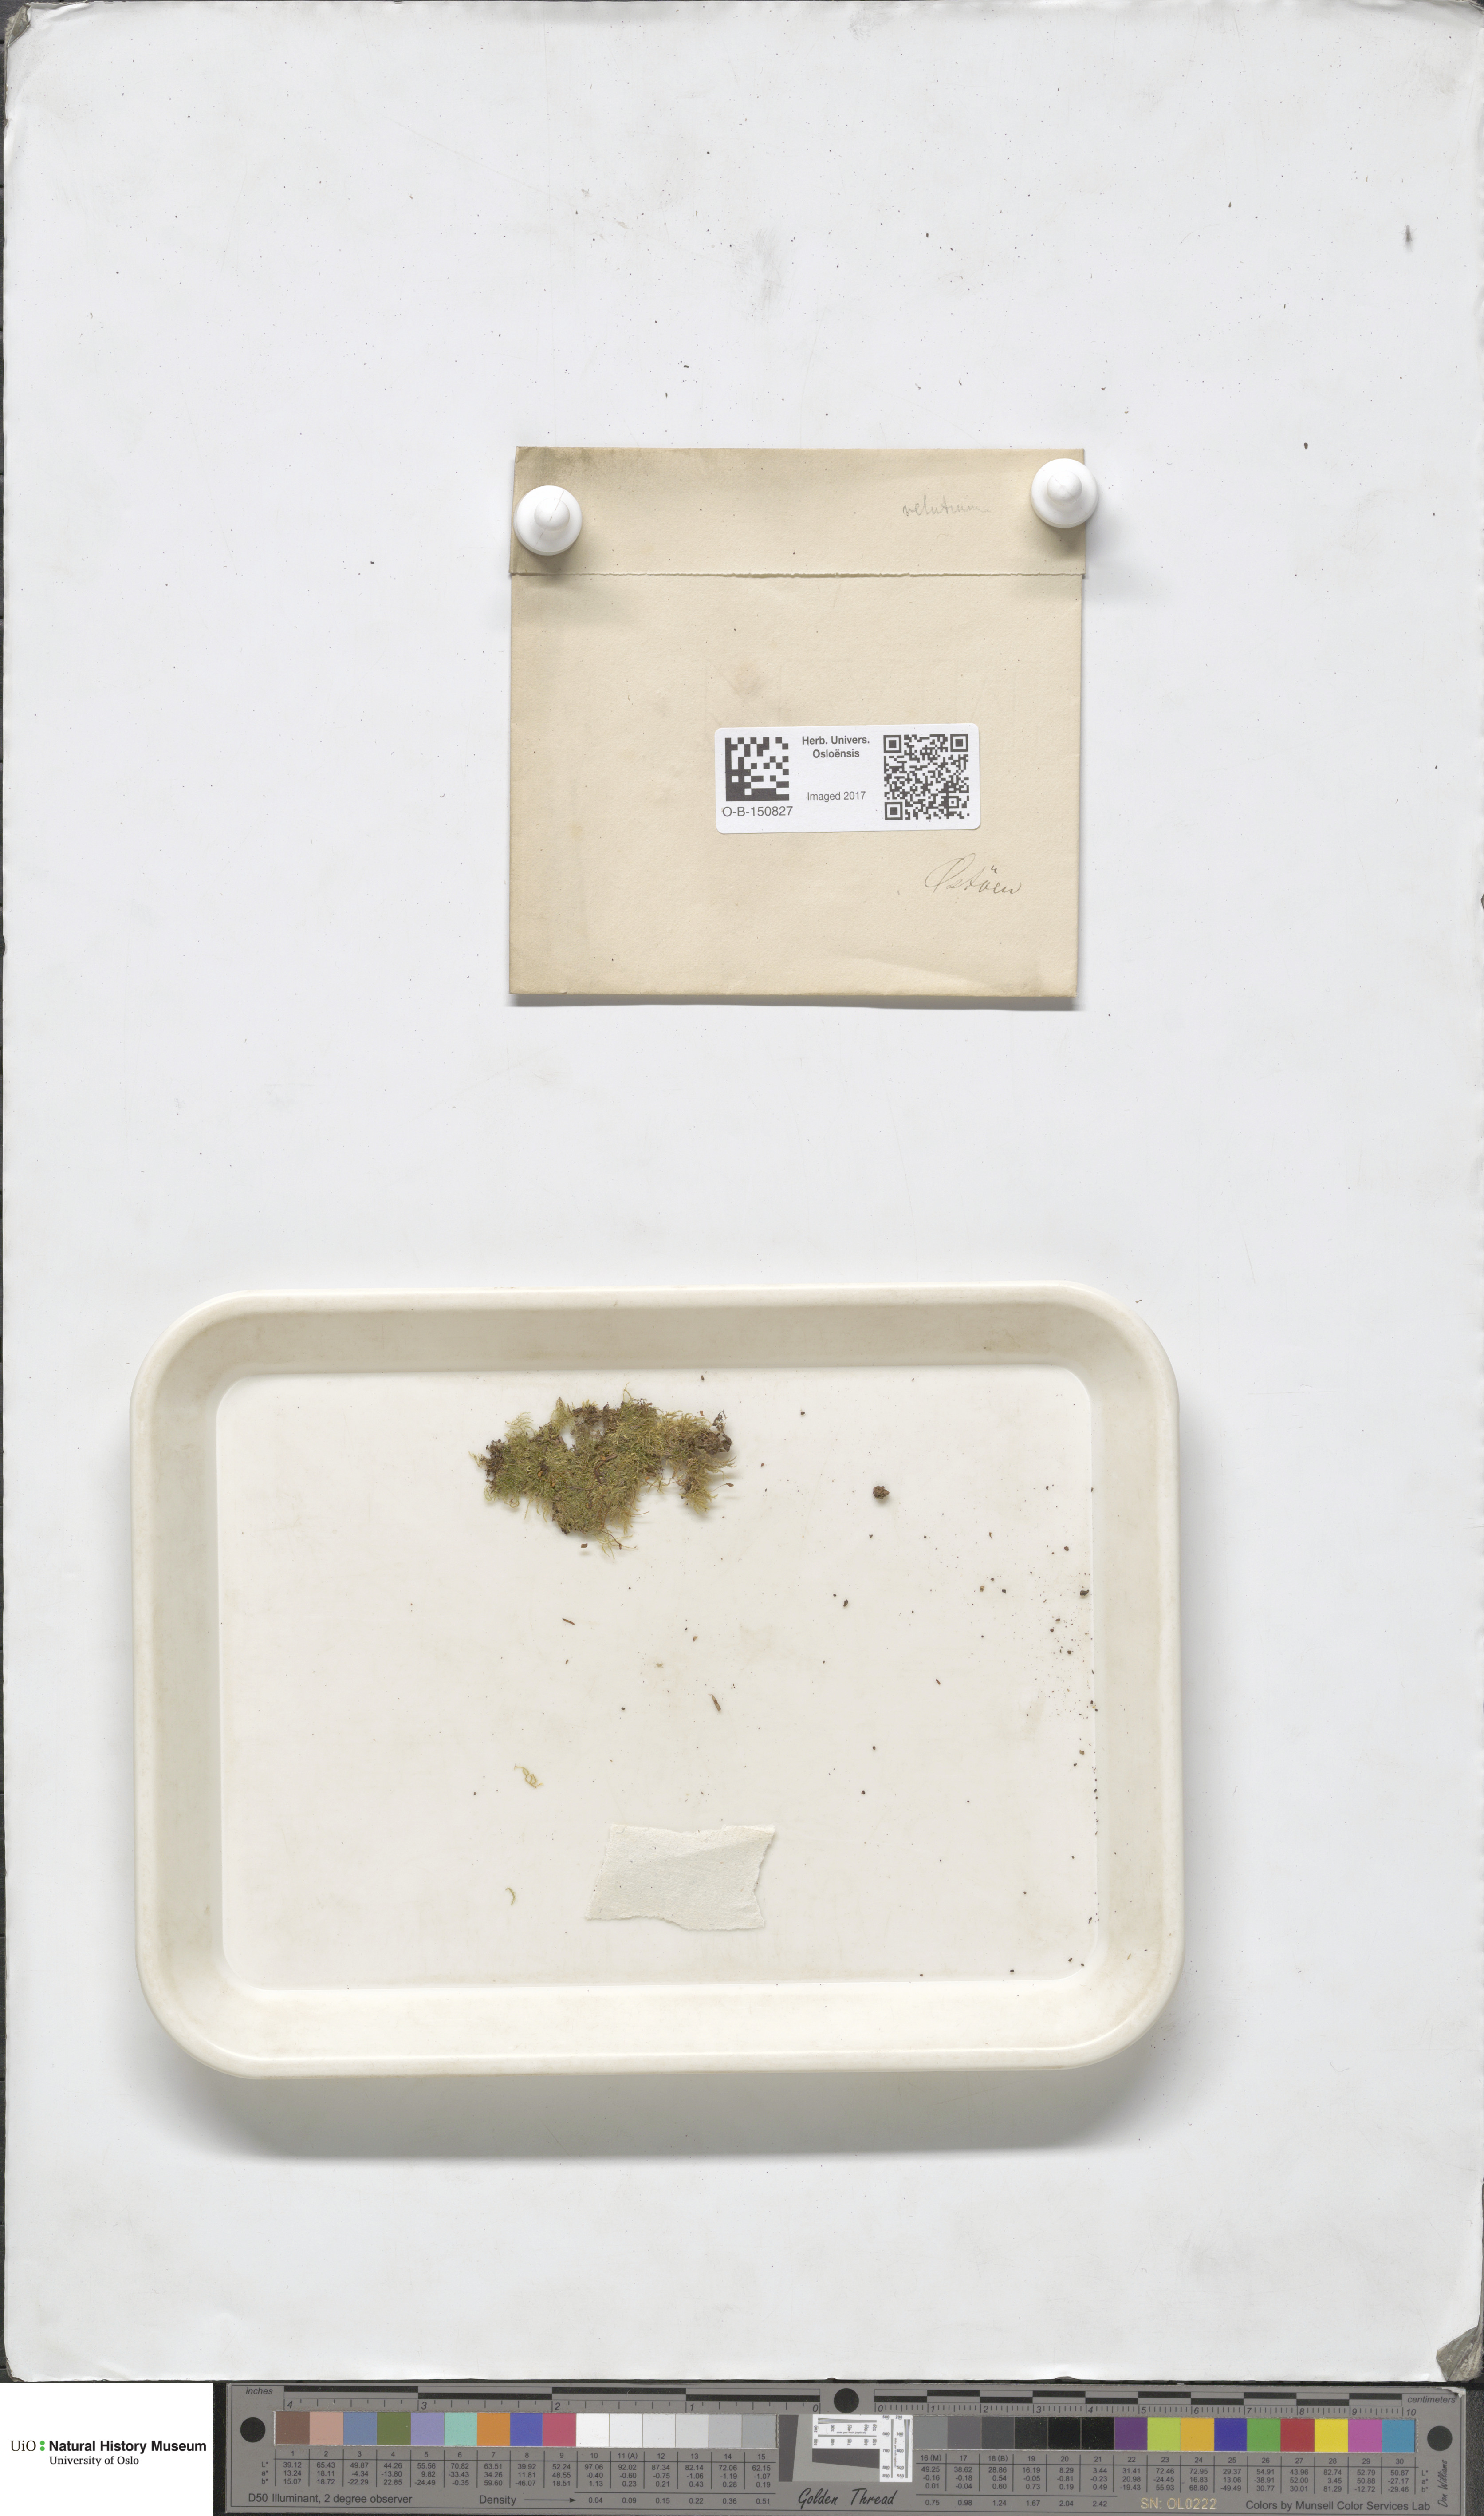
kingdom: Plantae
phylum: Bryophyta
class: Bryopsida
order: Hypnales
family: Brachytheciaceae
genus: Brachytheciastrum
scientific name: Brachytheciastrum velutinum
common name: Velvet feather-moss
